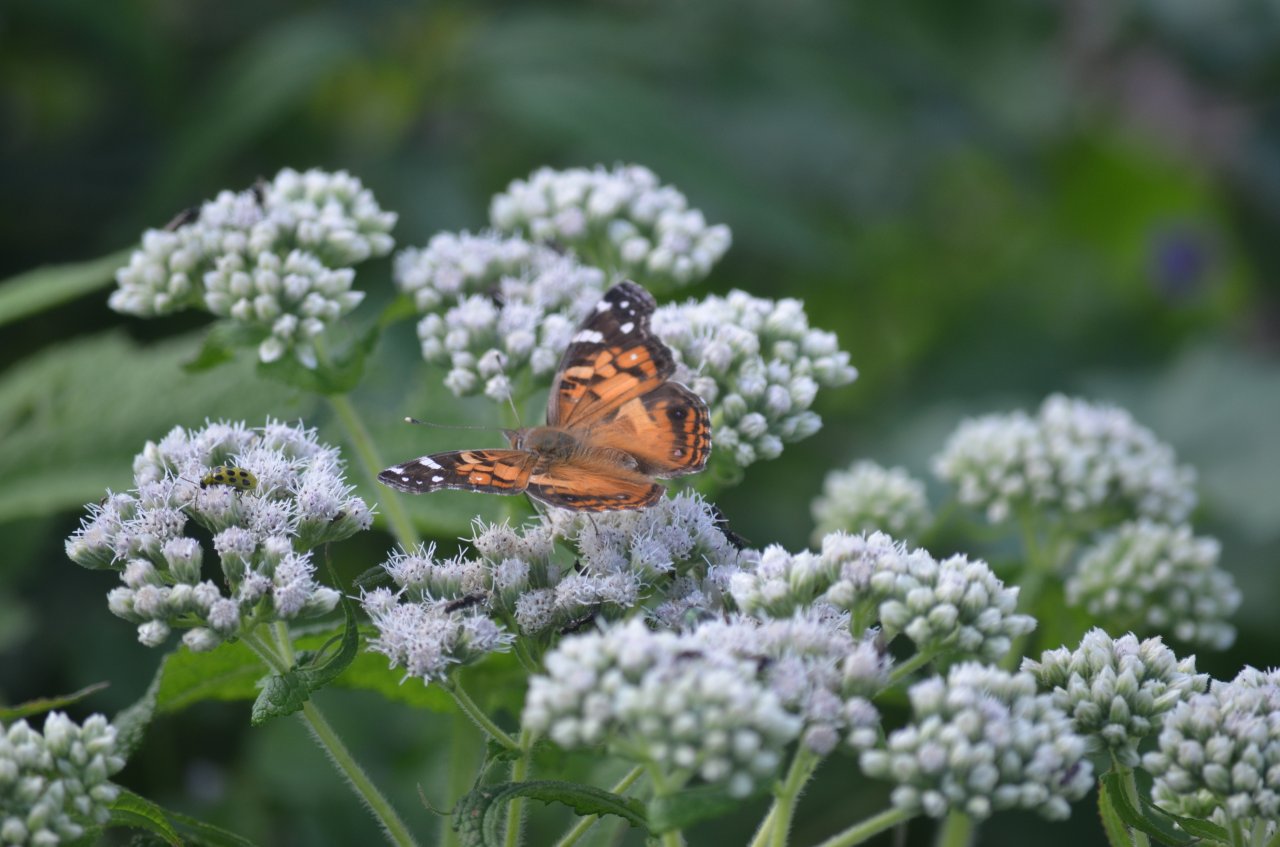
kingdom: Animalia
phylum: Arthropoda
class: Insecta
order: Lepidoptera
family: Nymphalidae
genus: Vanessa
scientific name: Vanessa virginiensis
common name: American Lady
